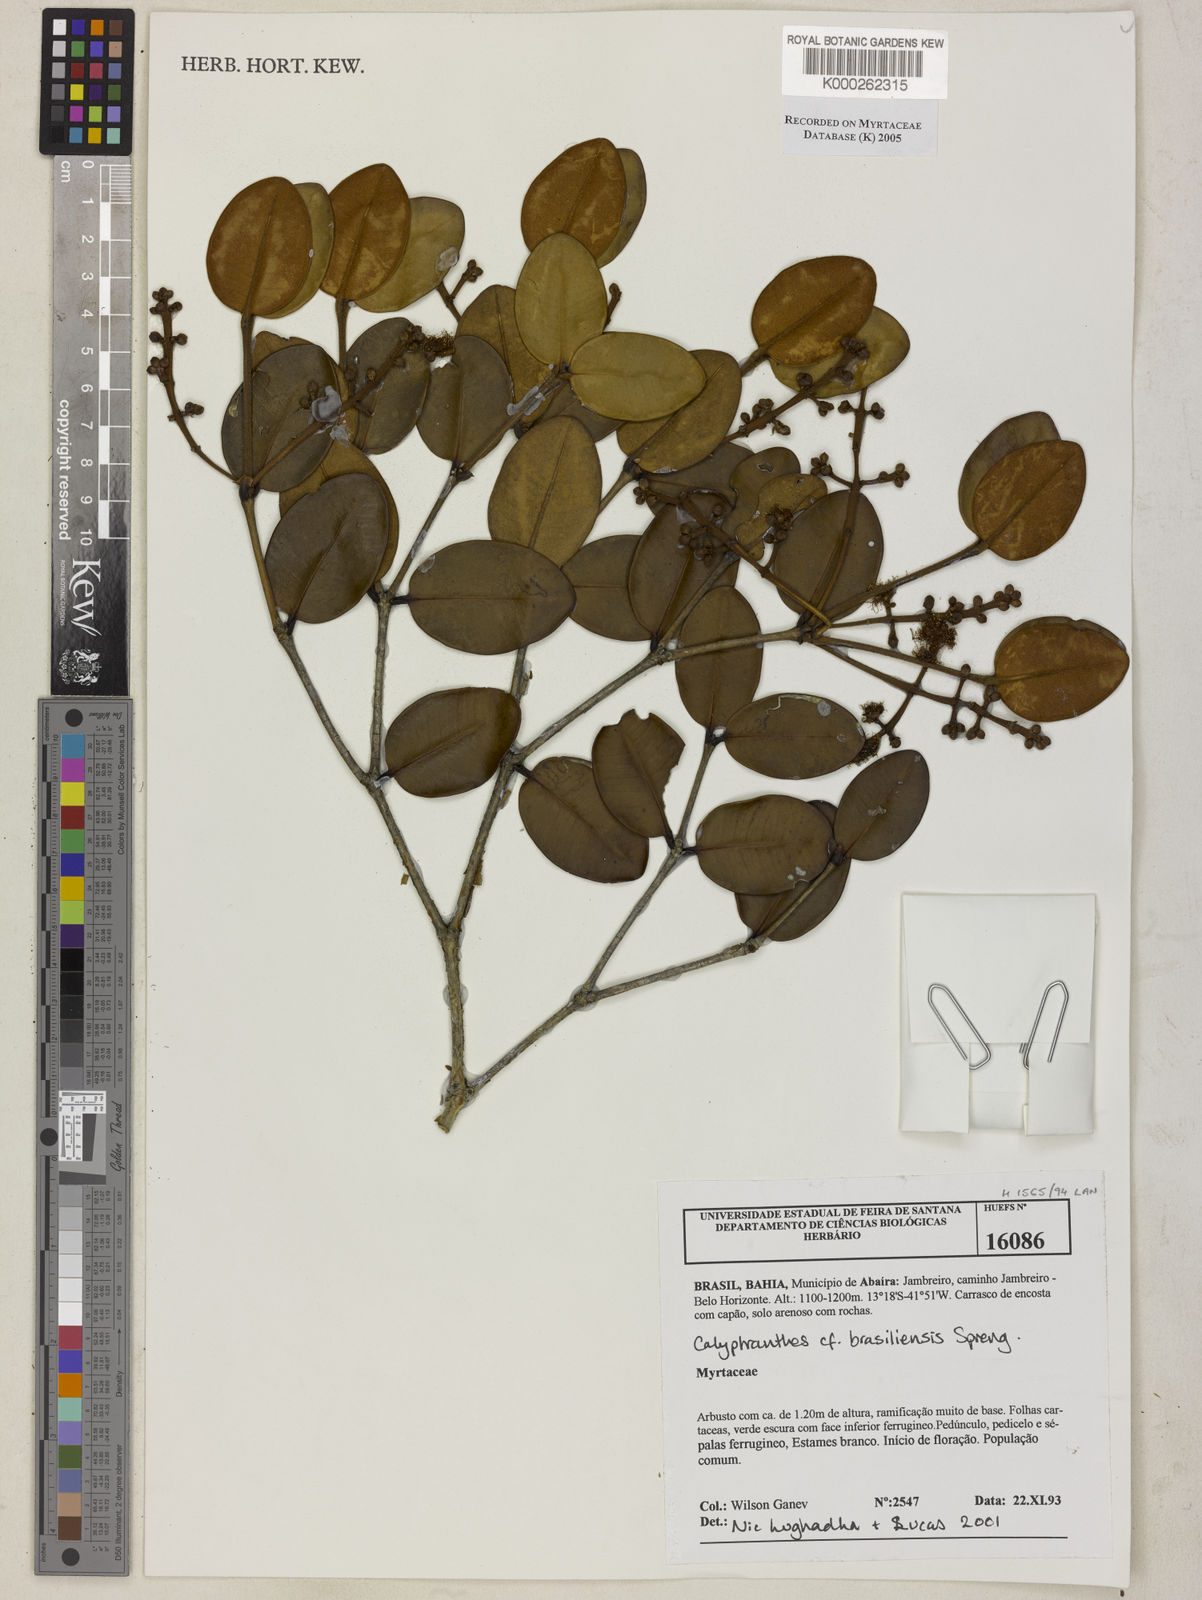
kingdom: Plantae
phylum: Tracheophyta
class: Magnoliopsida
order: Myrtales
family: Myrtaceae
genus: Myrcia
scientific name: Myrcia neobrasiliensis
